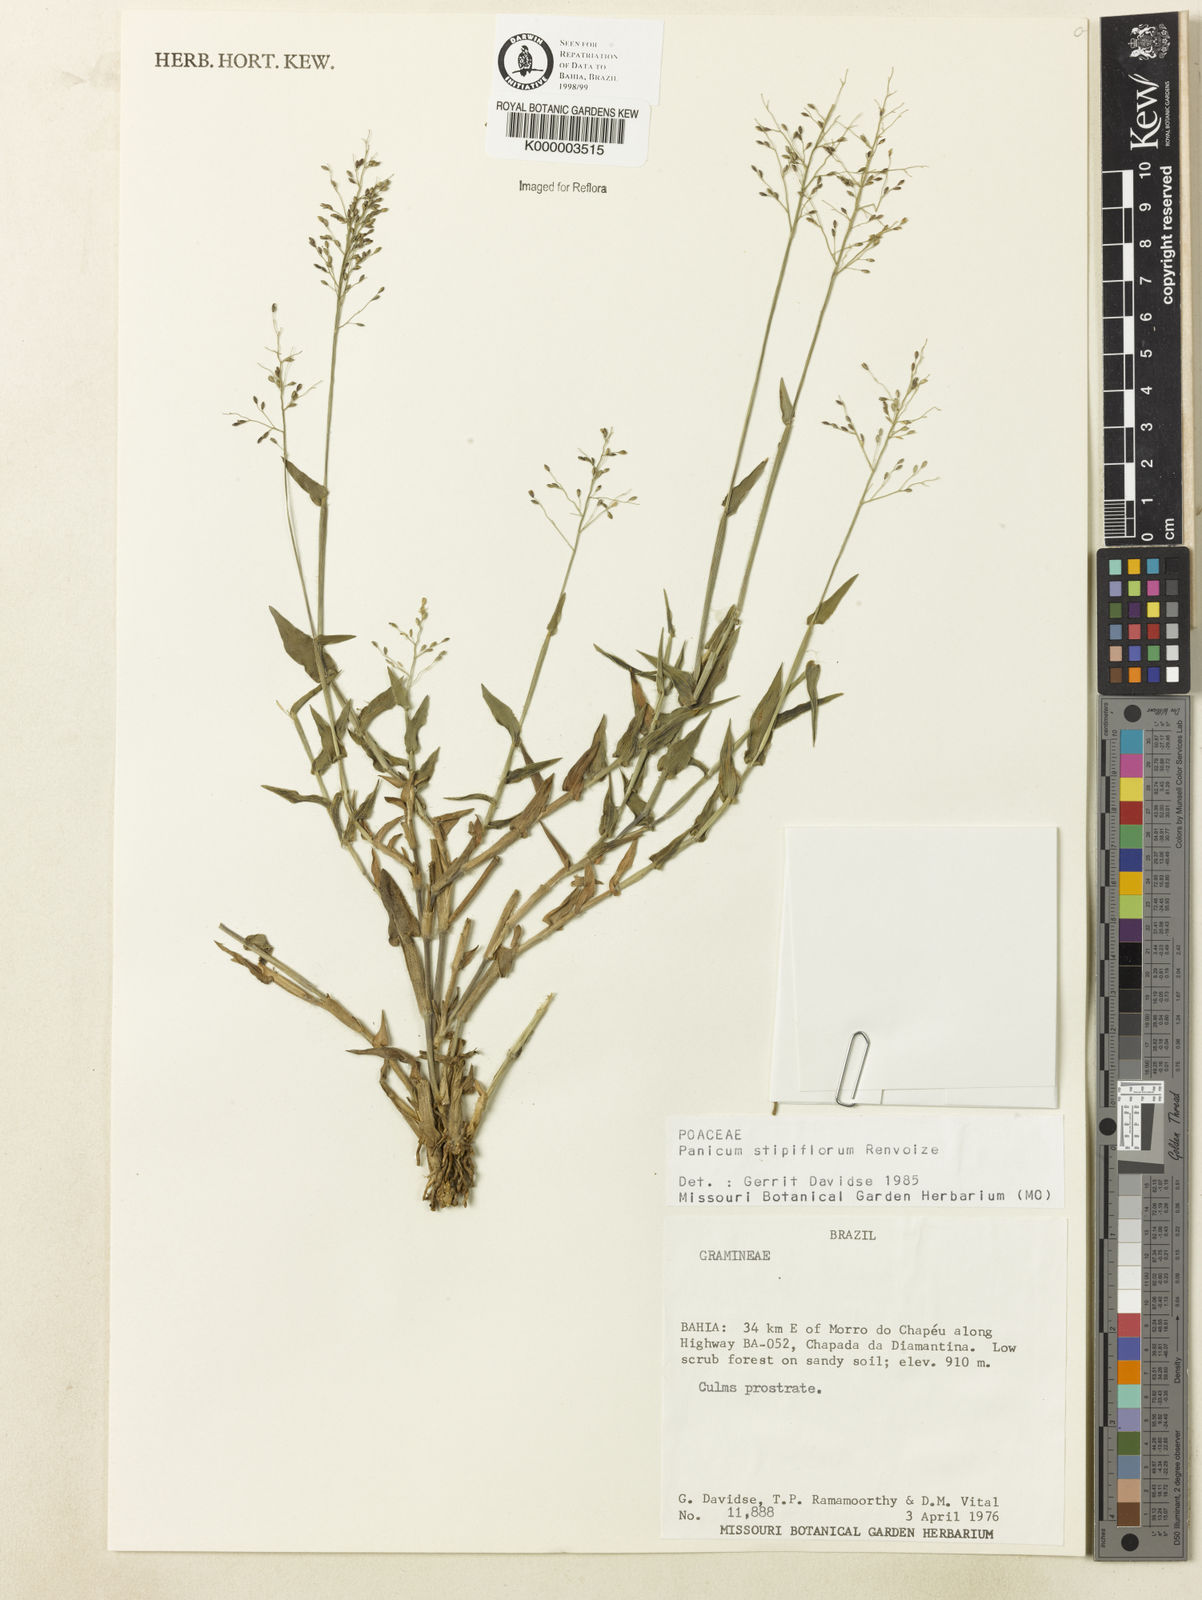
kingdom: Plantae
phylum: Tracheophyta
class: Liliopsida
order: Poales
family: Poaceae
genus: Dichanthelium
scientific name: Dichanthelium stipiflorum
